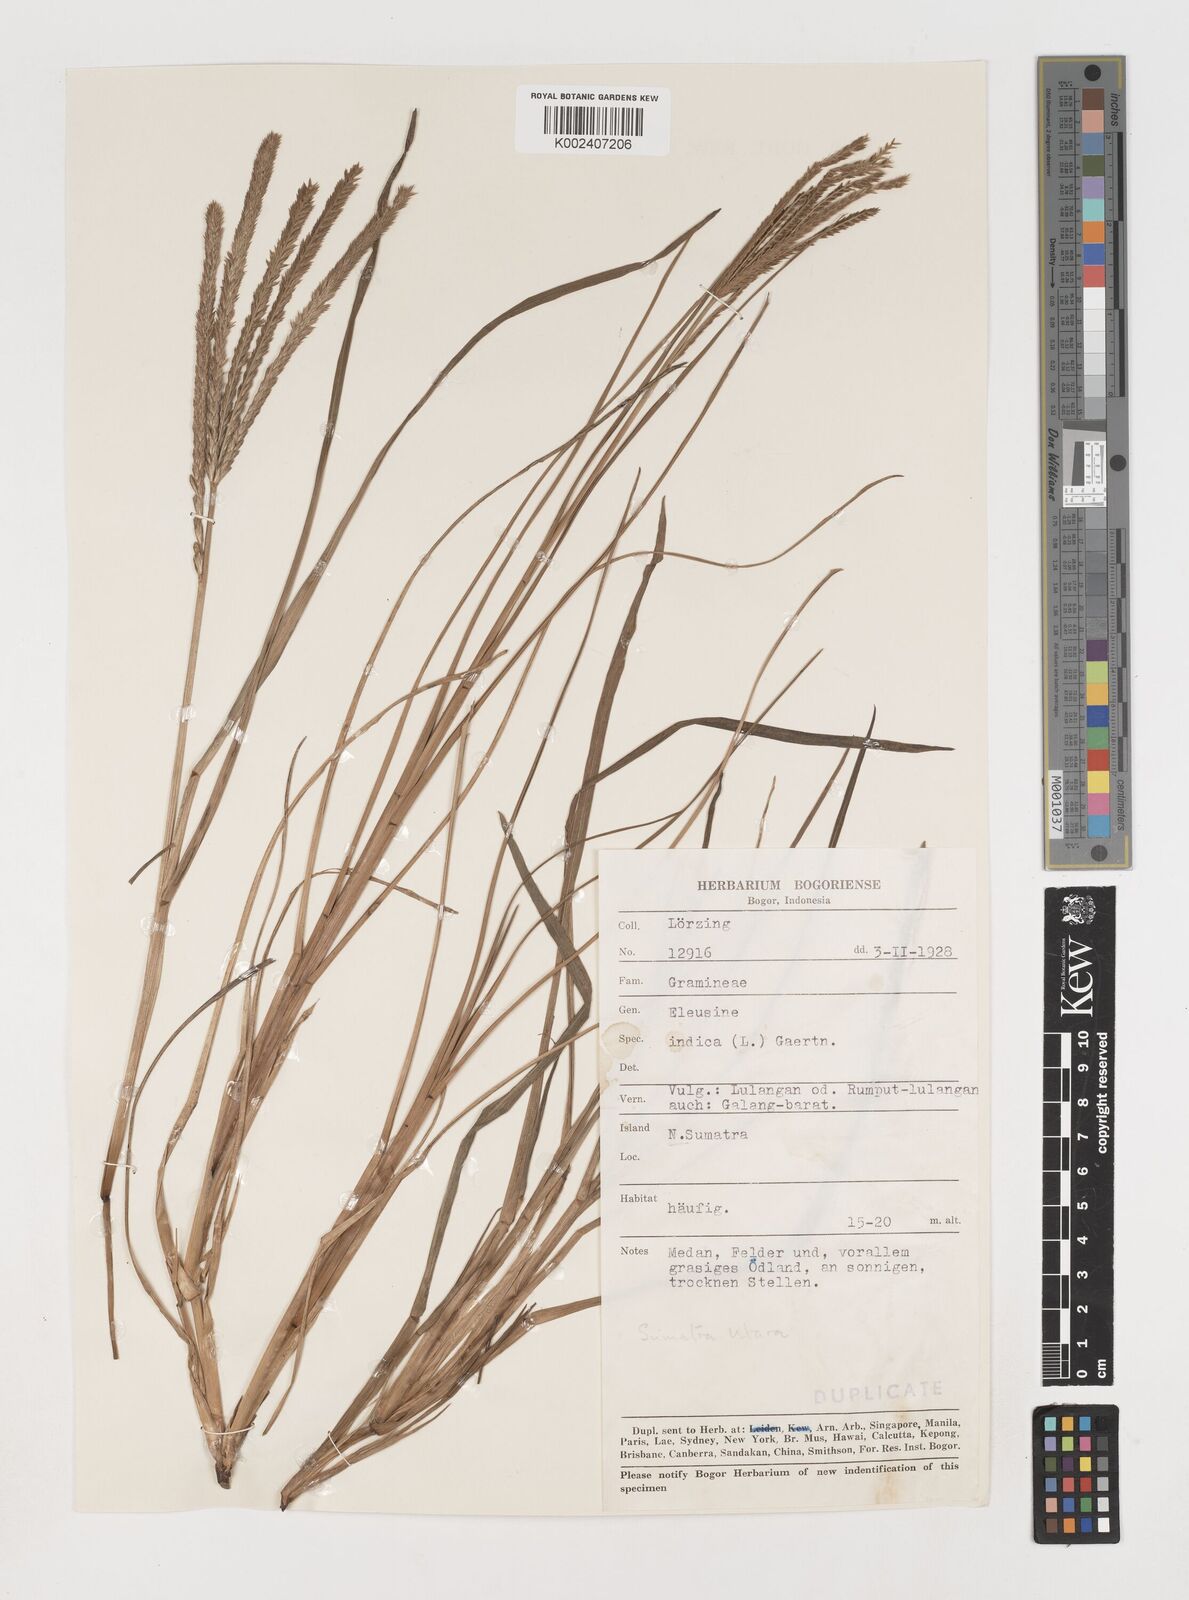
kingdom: Plantae
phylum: Tracheophyta
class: Liliopsida
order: Poales
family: Poaceae
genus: Eleusine
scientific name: Eleusine indica
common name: Yard-grass
